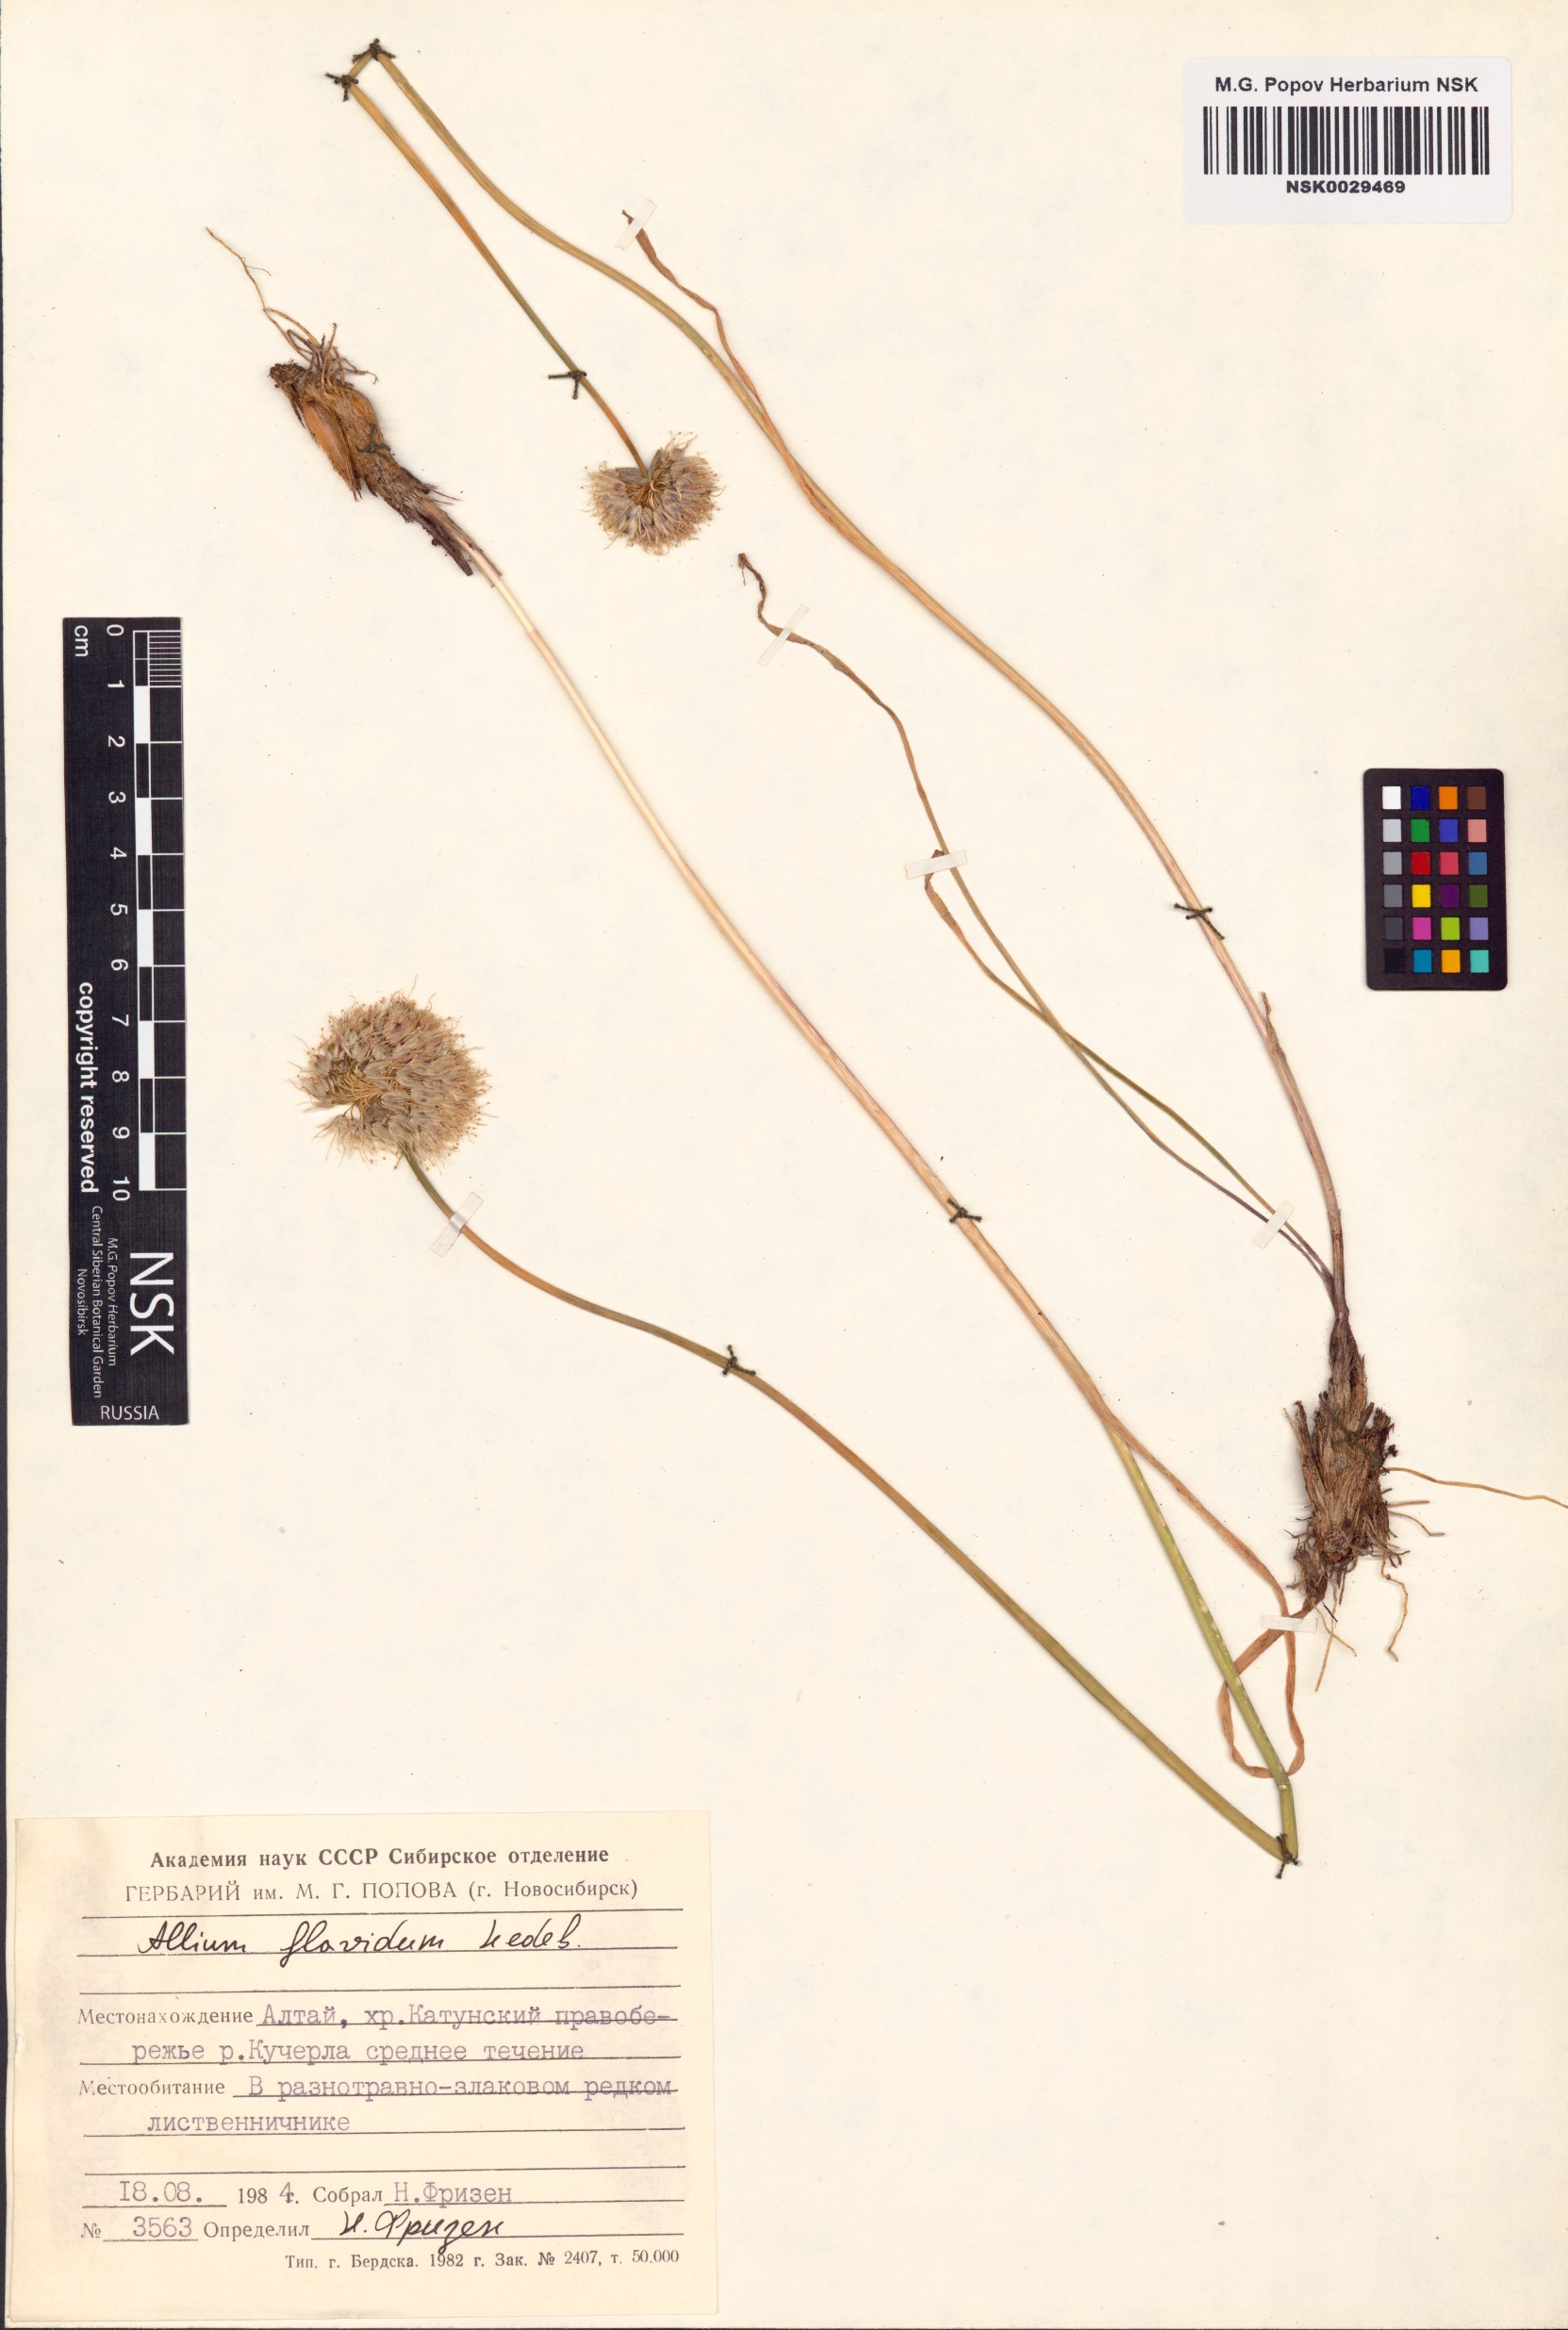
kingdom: Plantae
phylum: Tracheophyta
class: Liliopsida
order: Asparagales
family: Amaryllidaceae
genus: Allium
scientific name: Allium flavidum
